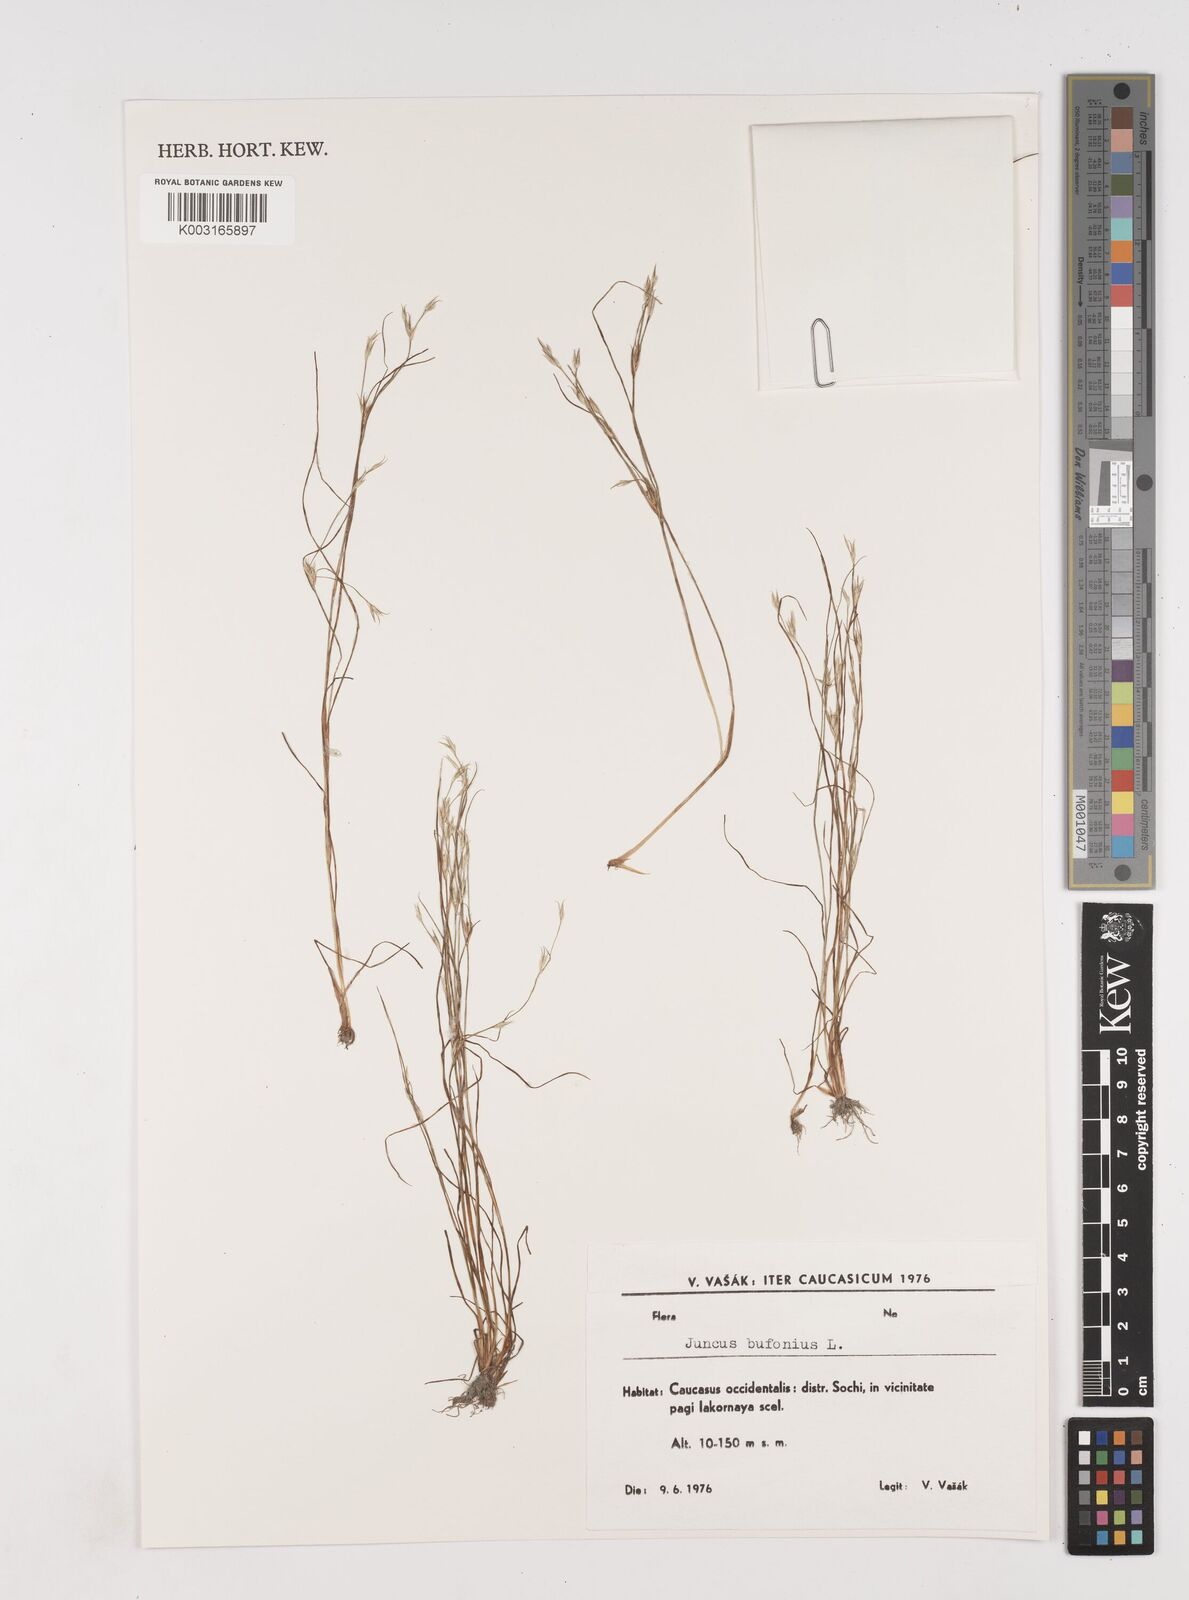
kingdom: Plantae
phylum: Tracheophyta
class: Liliopsida
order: Poales
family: Juncaceae
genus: Juncus
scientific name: Juncus bufonius
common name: Toad rush
